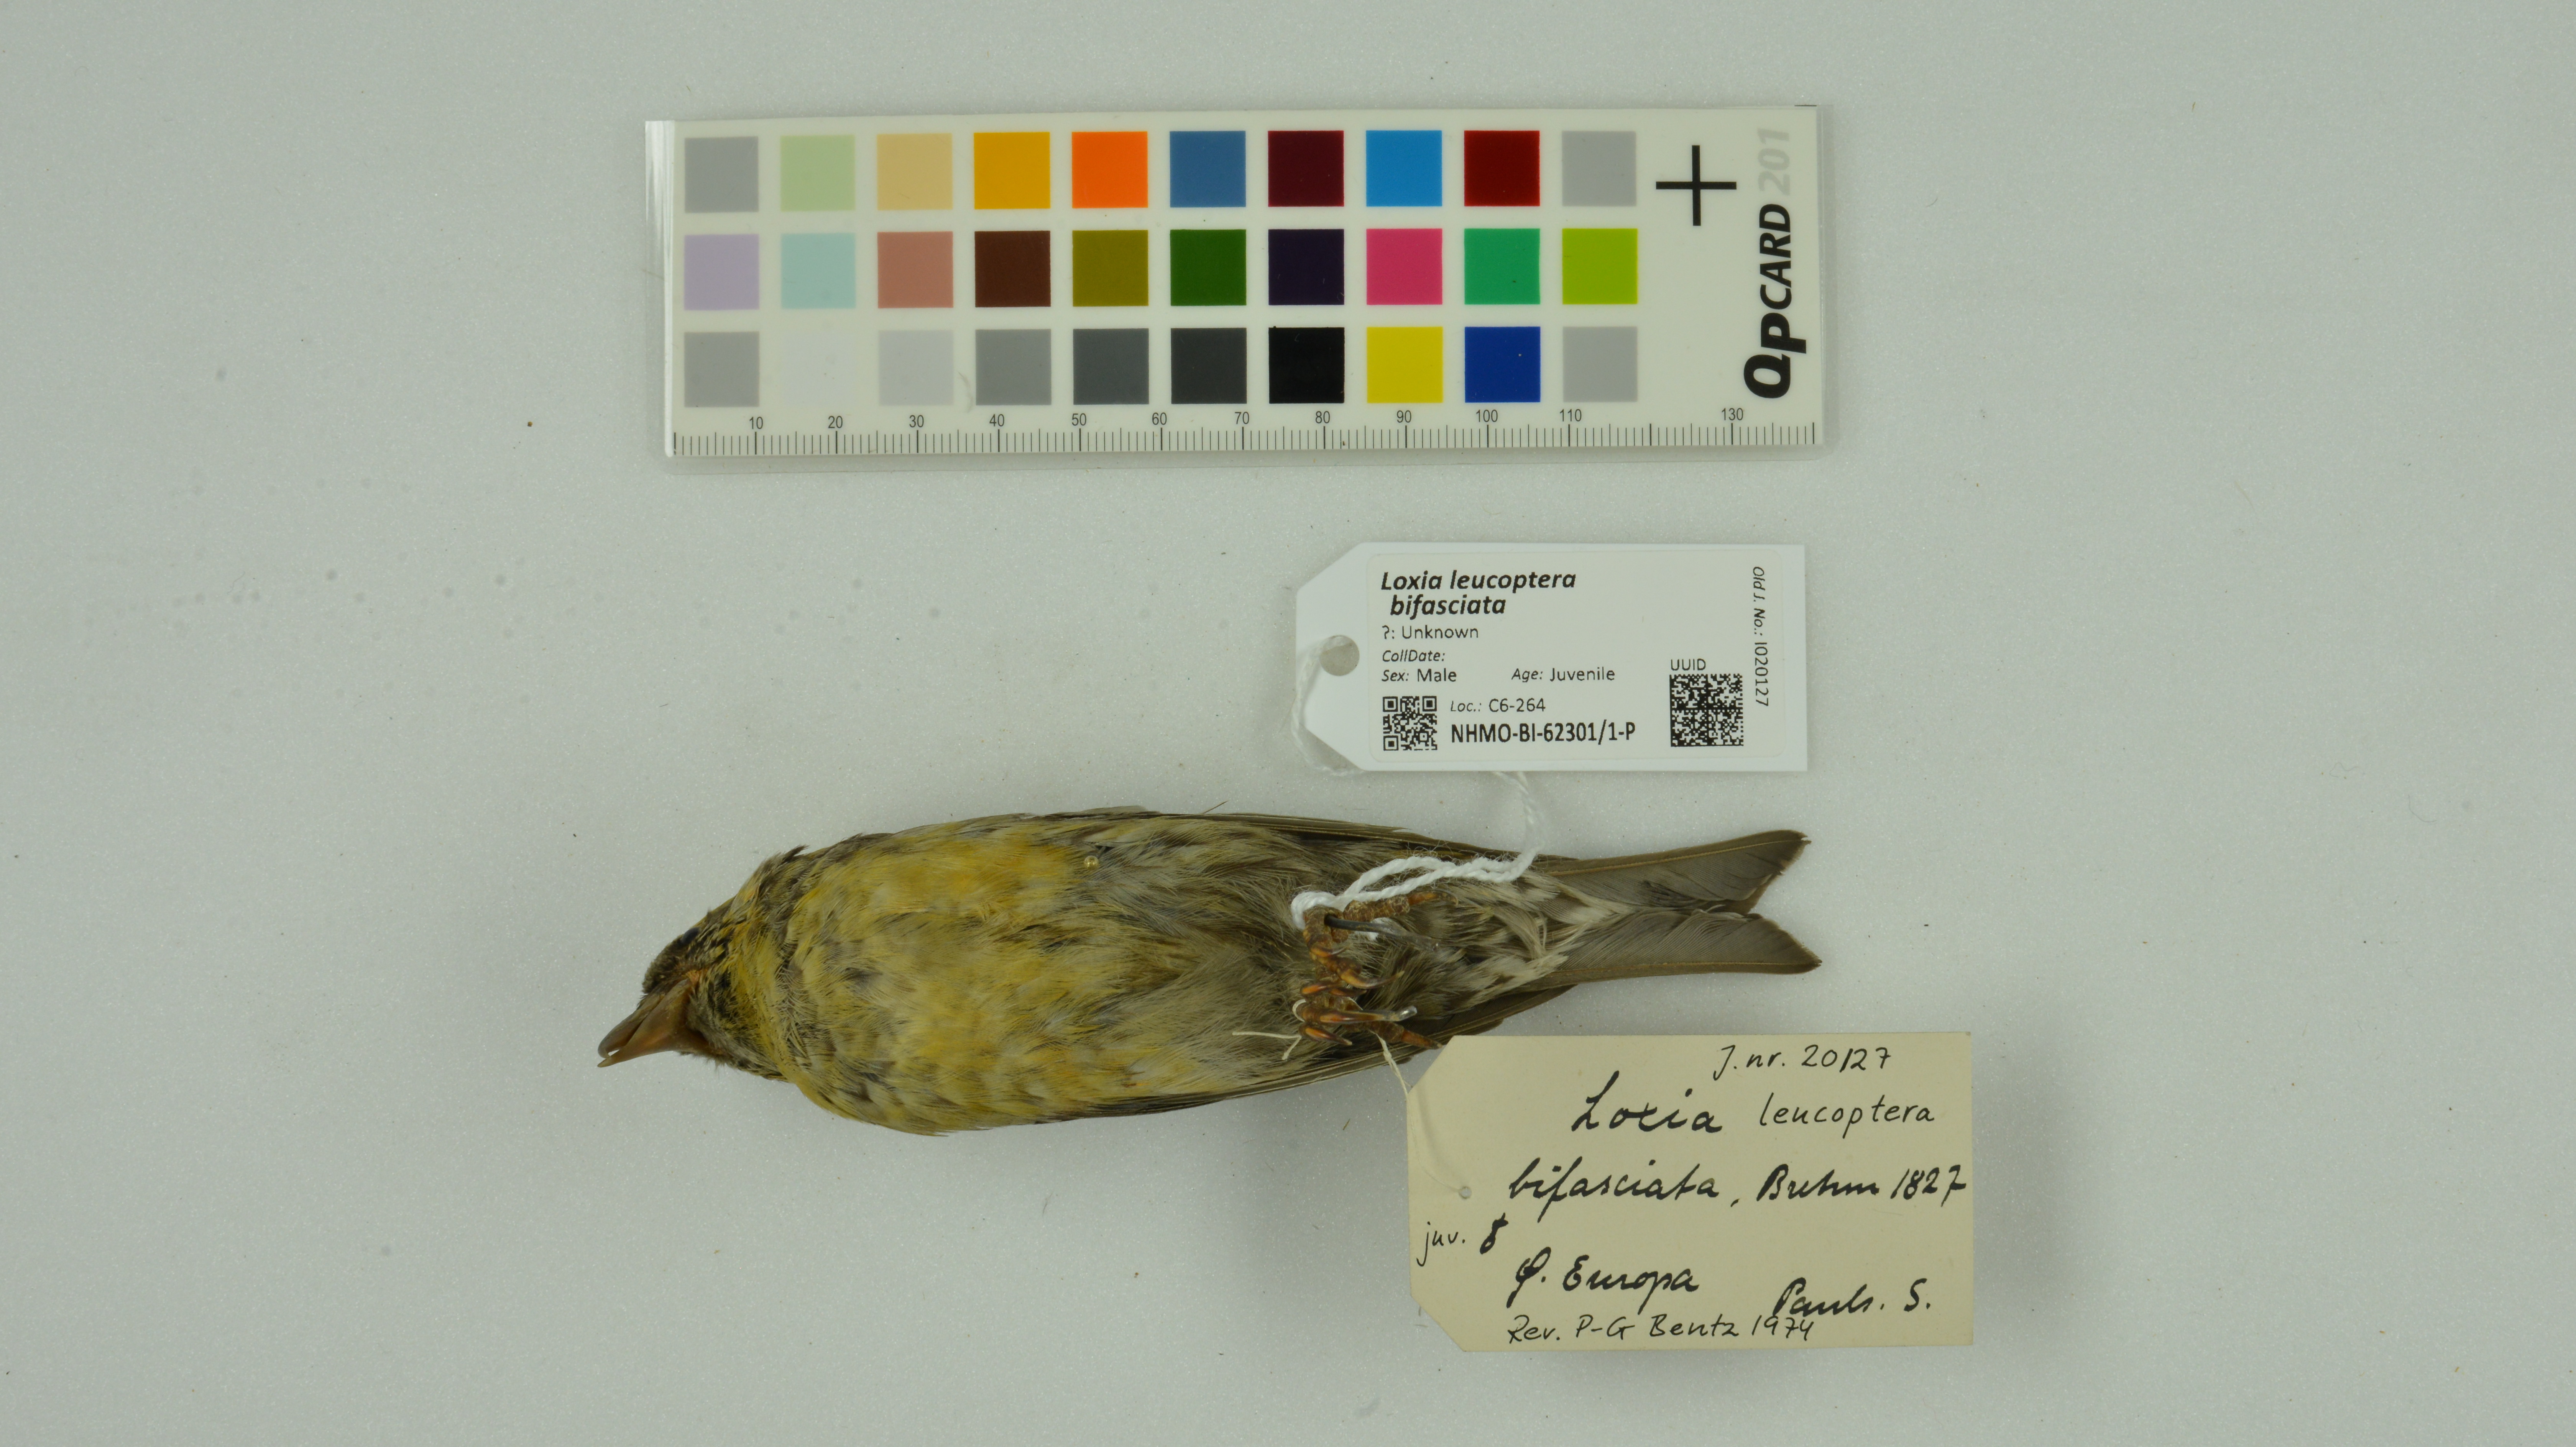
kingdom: Animalia
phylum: Chordata
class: Aves
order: Passeriformes
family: Fringillidae
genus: Loxia
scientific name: Loxia leucoptera
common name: Two-barred crossbill
